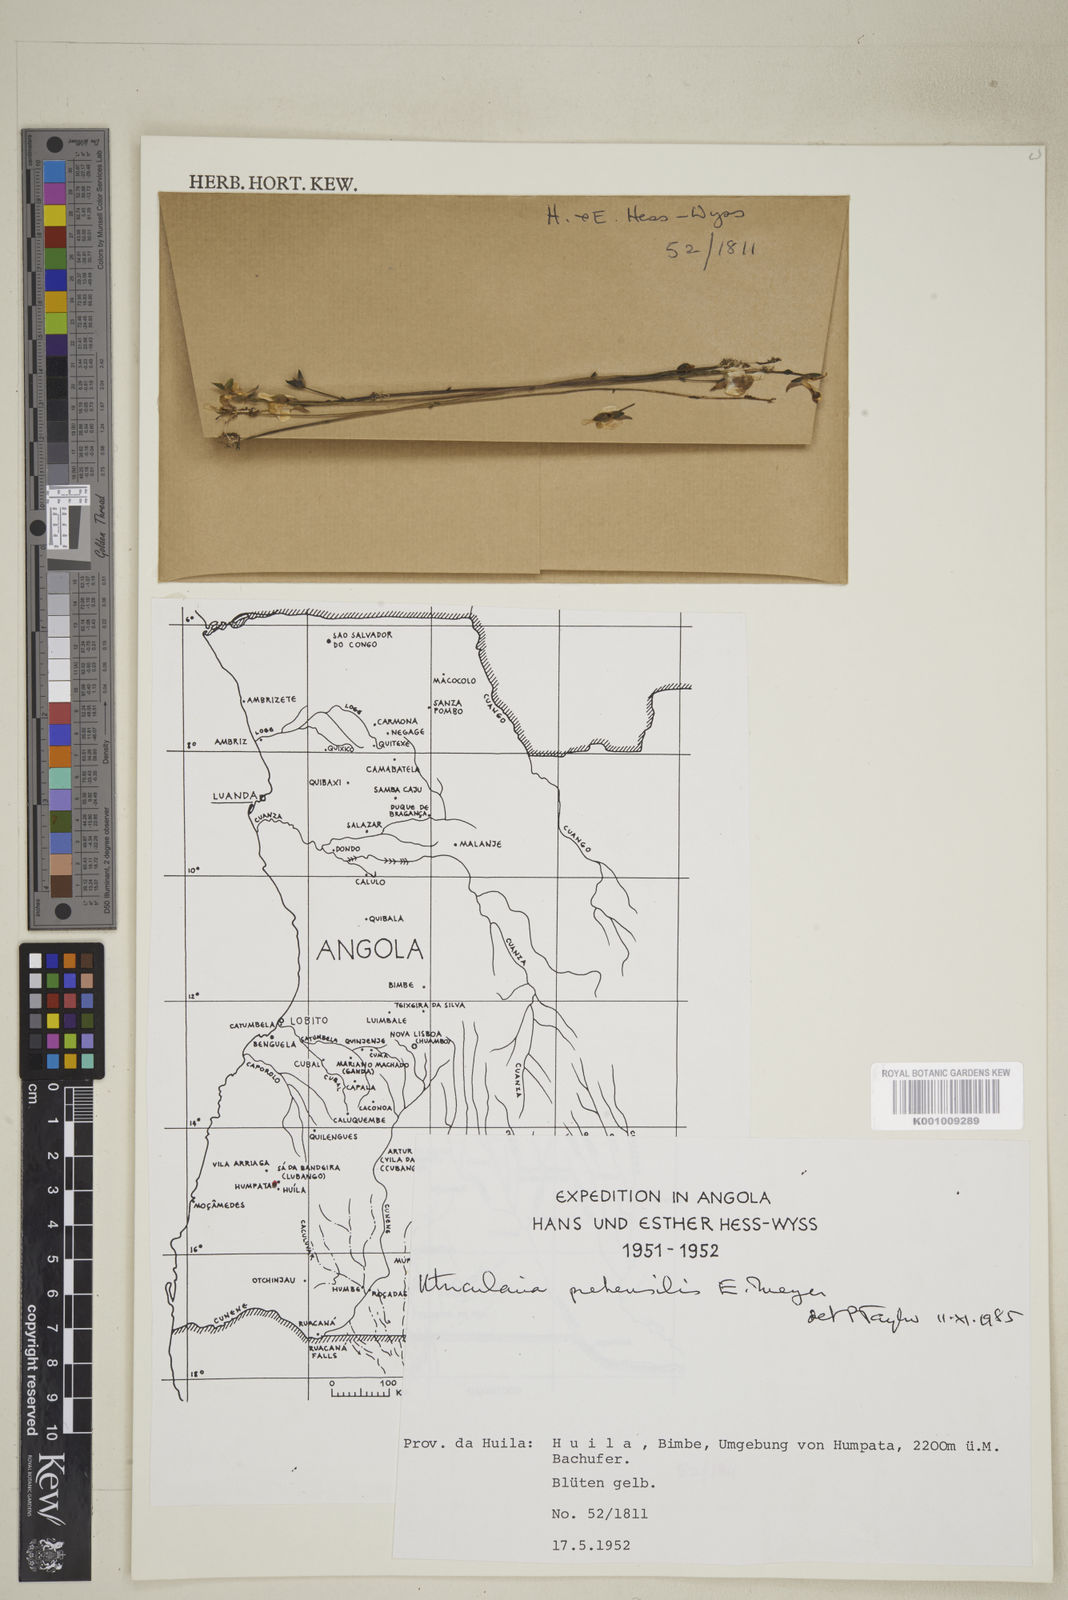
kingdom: Plantae
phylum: Tracheophyta
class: Magnoliopsida
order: Lamiales
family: Lentibulariaceae
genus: Utricularia
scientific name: Utricularia prehensilis
